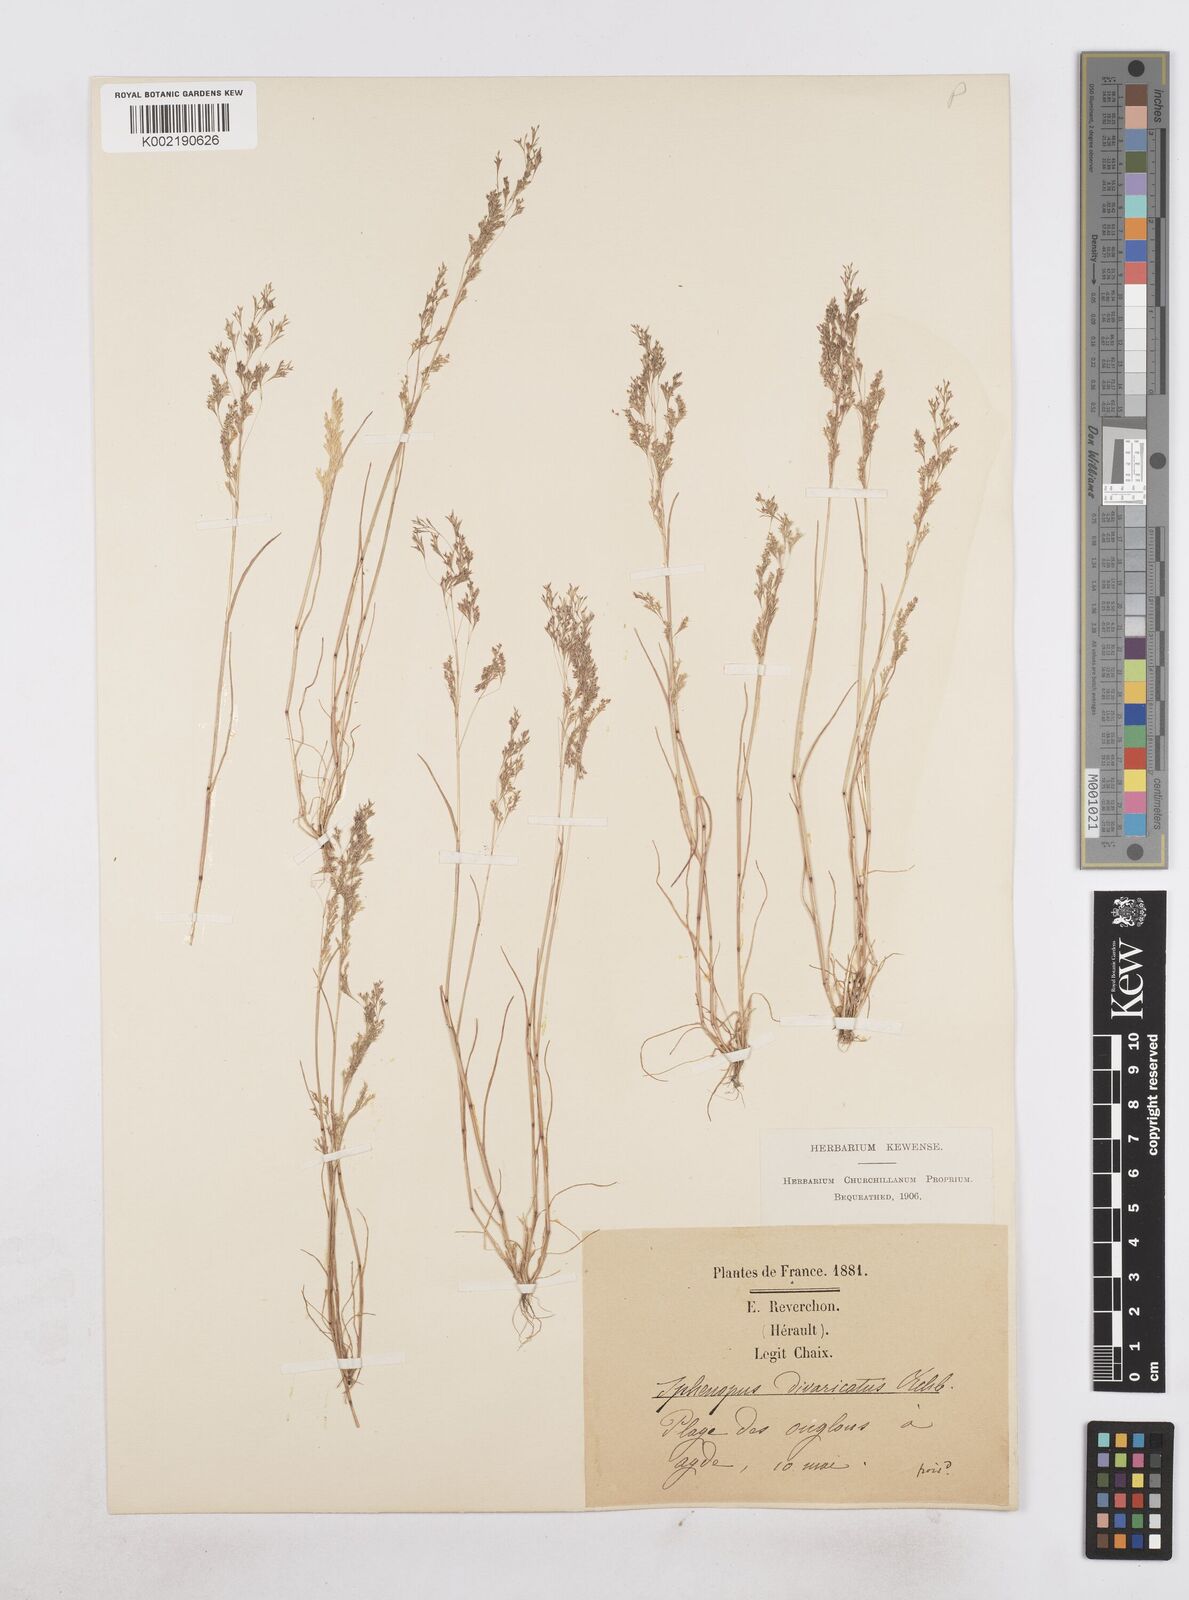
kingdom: Plantae
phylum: Tracheophyta
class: Liliopsida
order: Poales
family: Poaceae
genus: Sphenopus
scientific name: Sphenopus divaricatus
